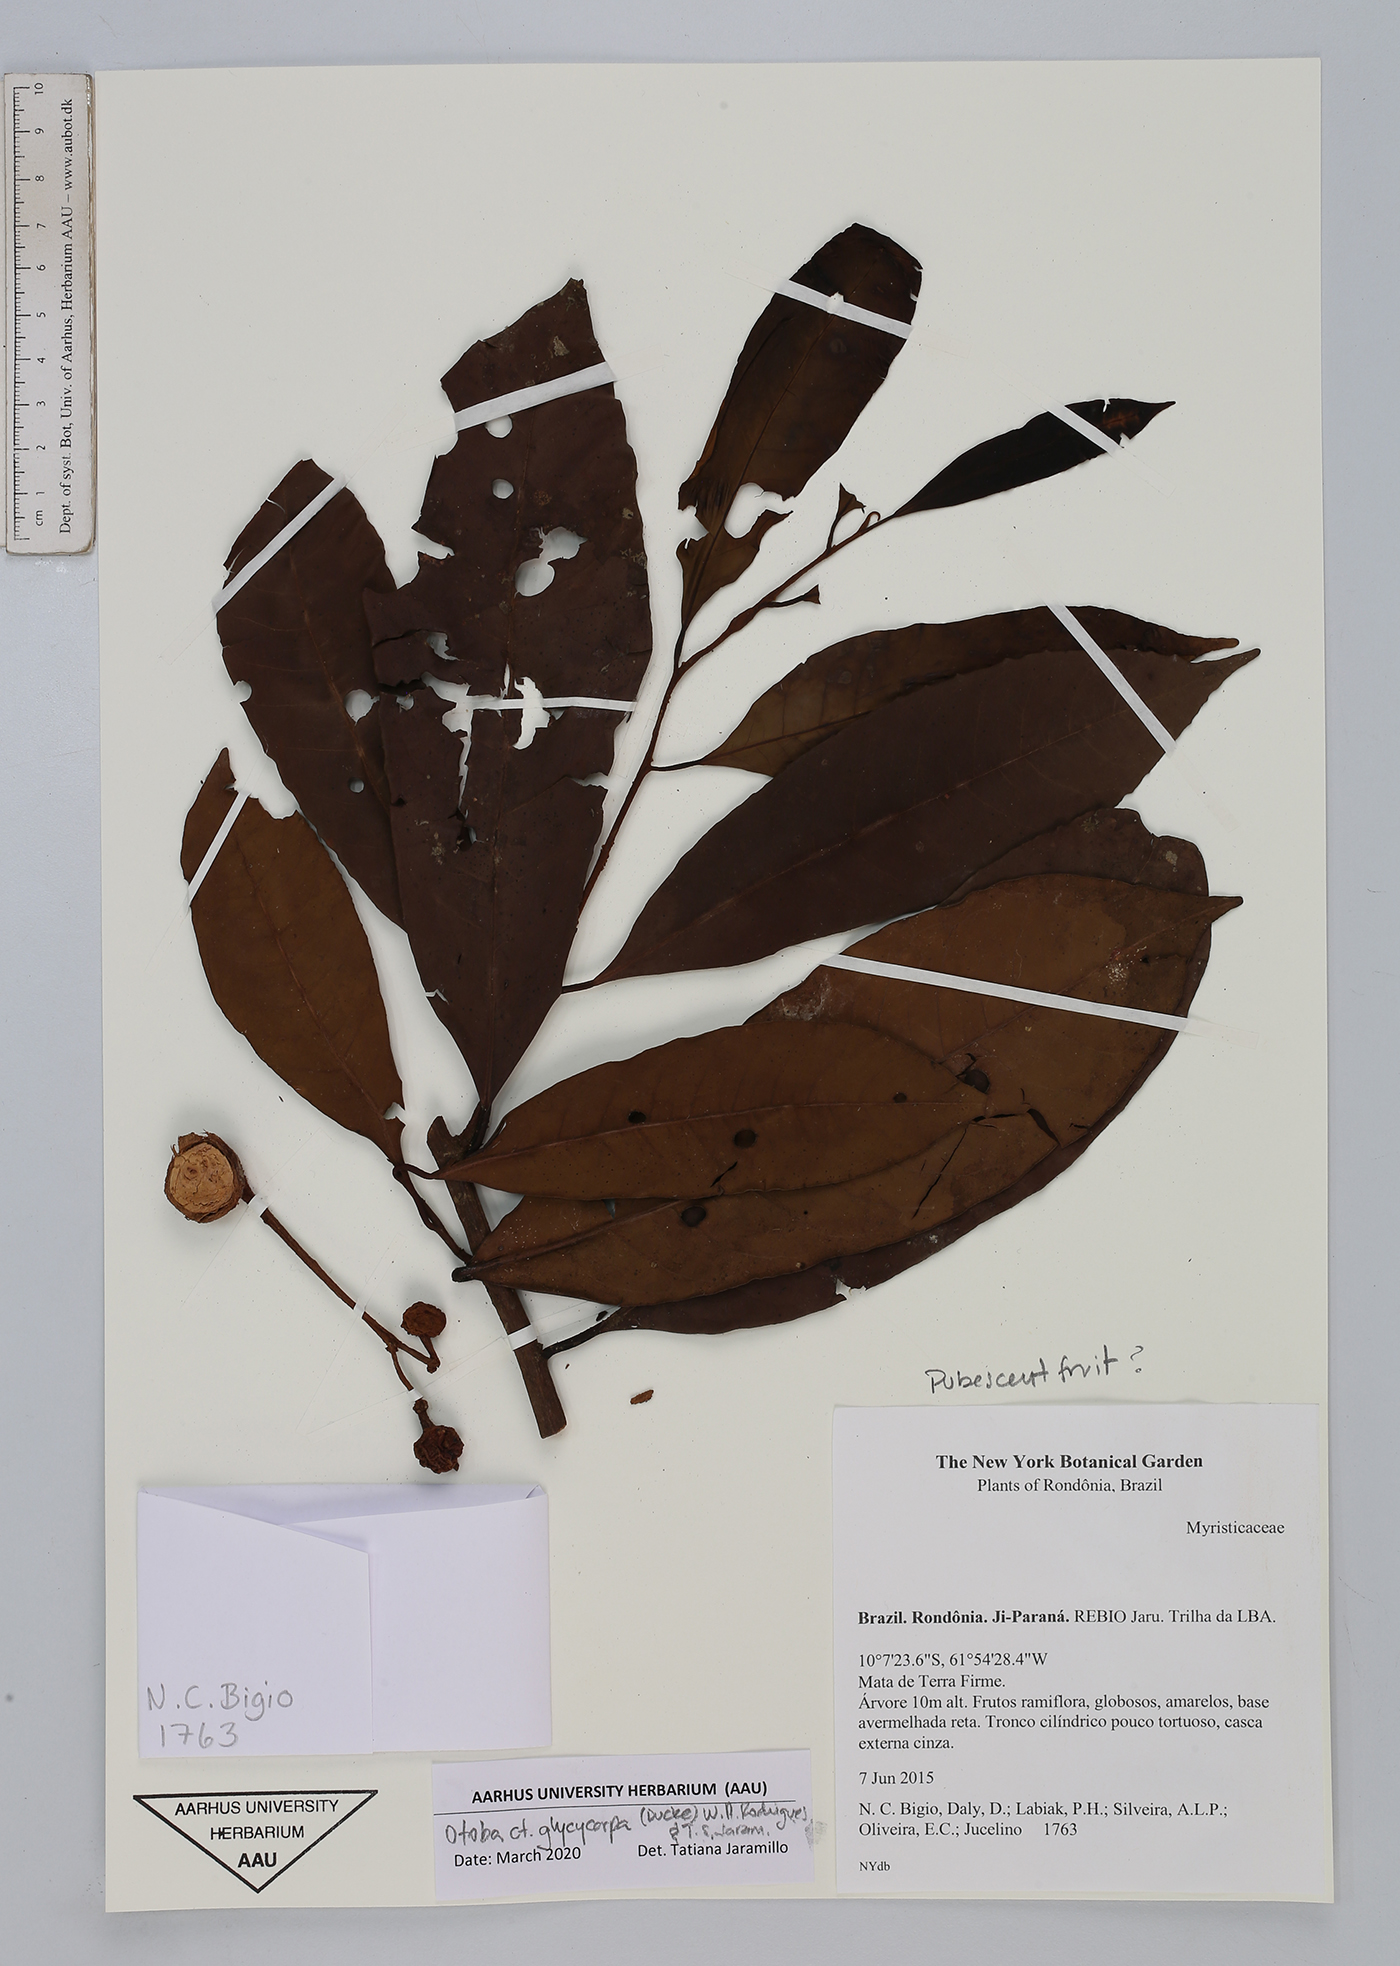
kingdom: Plantae
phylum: Tracheophyta
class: Magnoliopsida
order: Magnoliales
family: Myristicaceae
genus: Otoba
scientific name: Otoba glycycarpa
